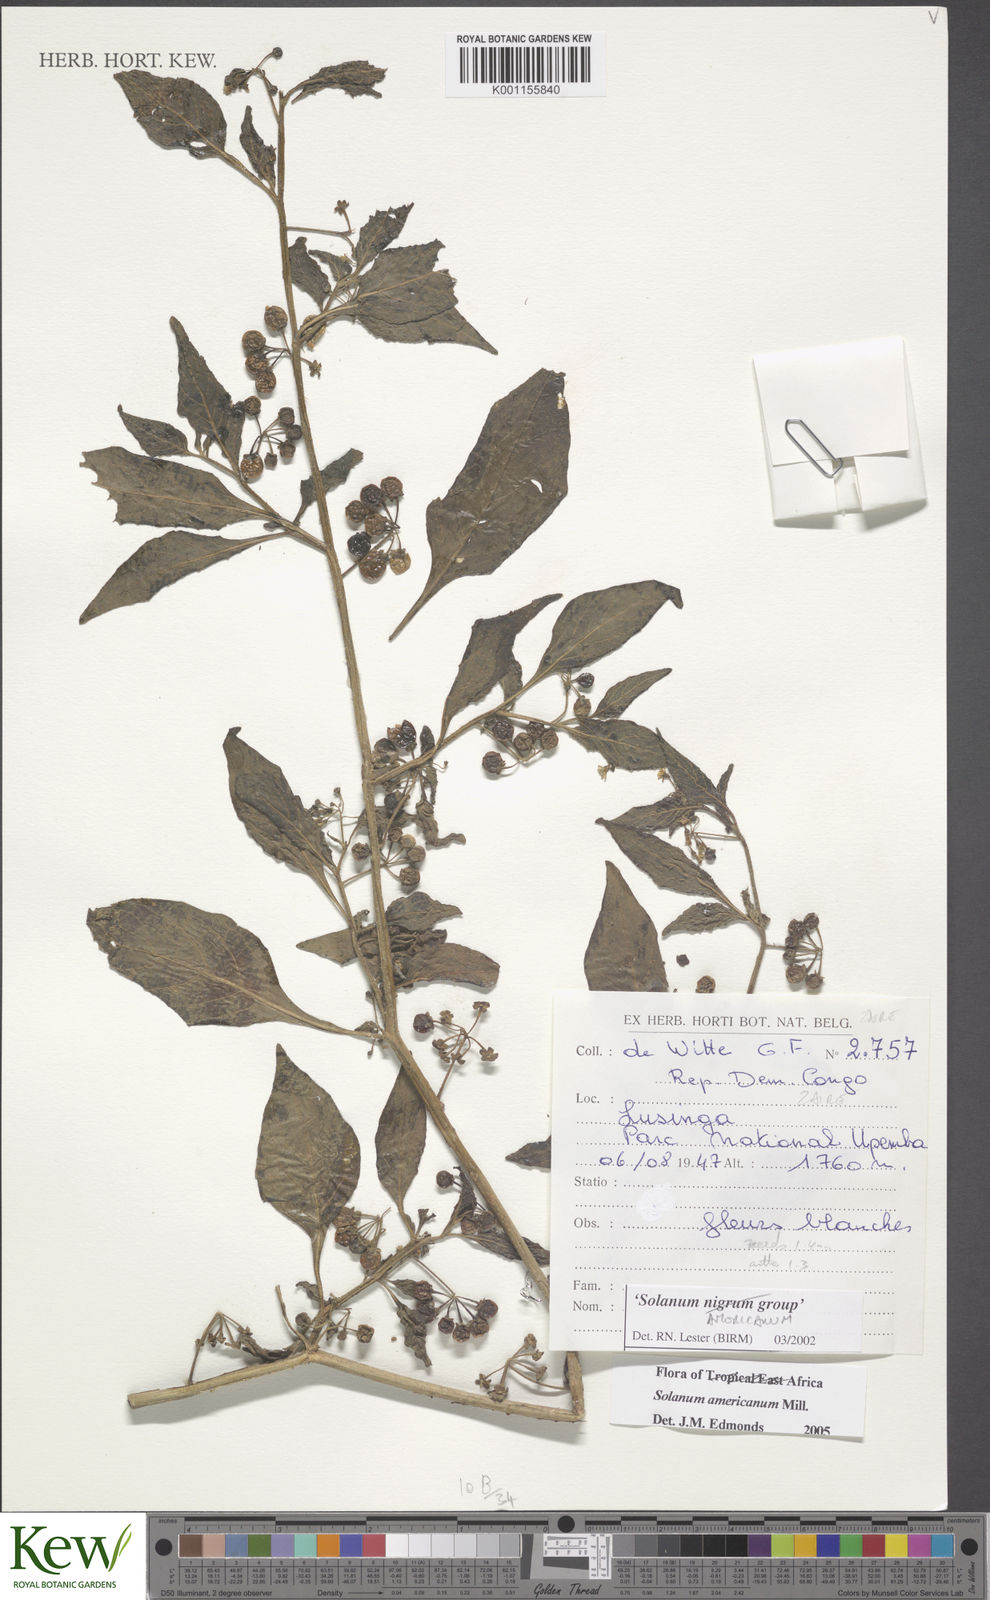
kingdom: Plantae
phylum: Tracheophyta
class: Magnoliopsida
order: Solanales
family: Solanaceae
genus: Solanum
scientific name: Solanum americanum
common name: American black nightshade
